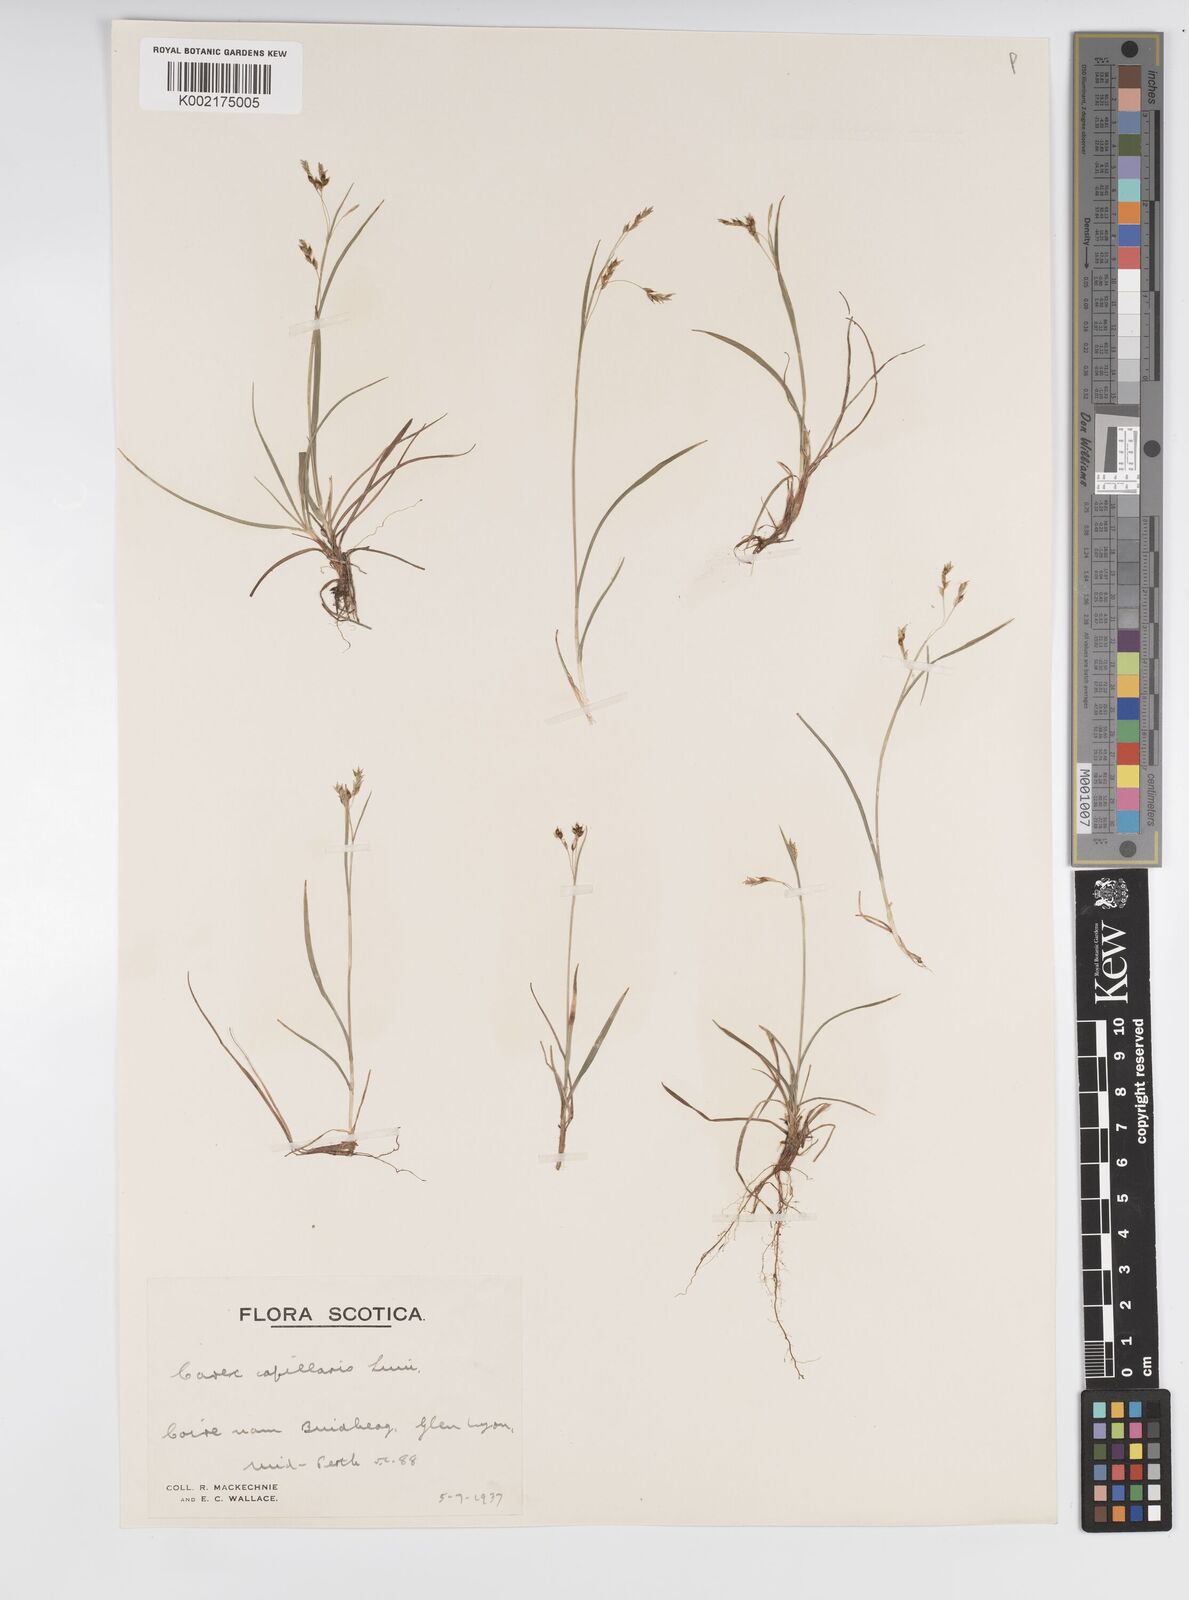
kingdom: Plantae
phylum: Tracheophyta
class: Liliopsida
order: Poales
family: Cyperaceae
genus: Carex
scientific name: Carex capillaris
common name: Hair sedge
